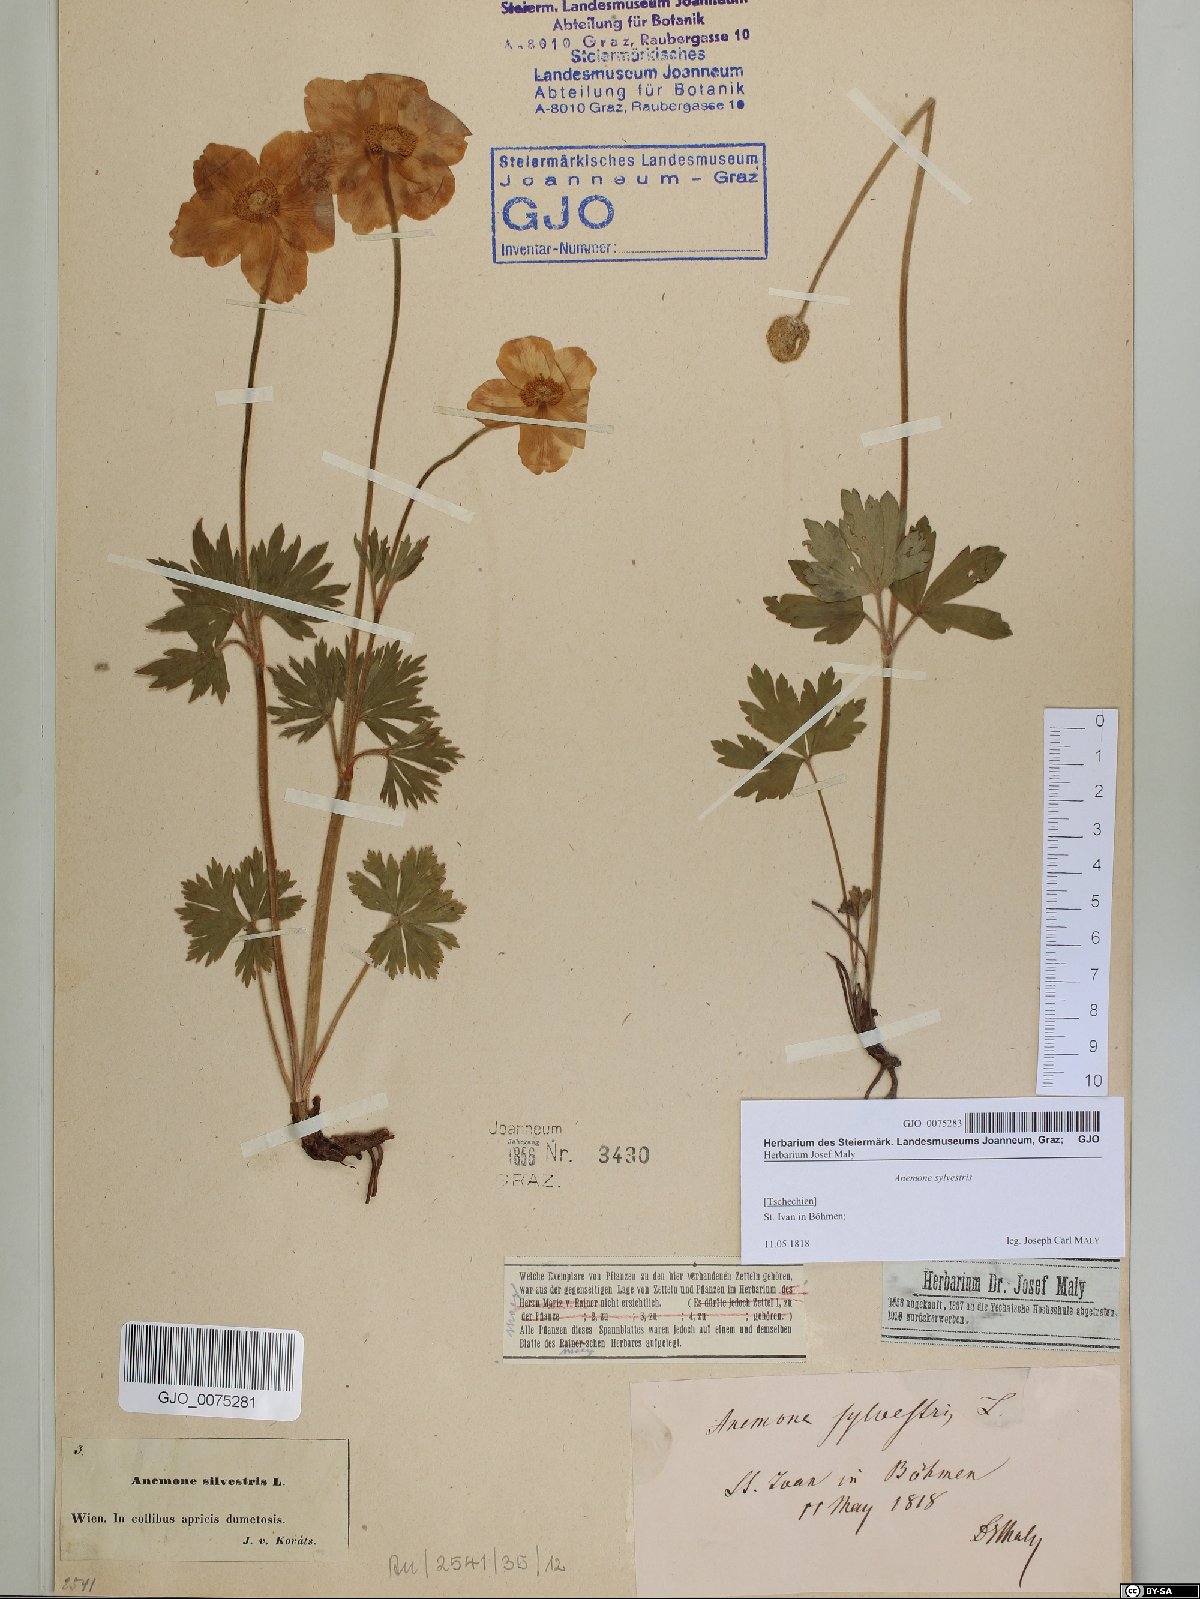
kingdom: Plantae
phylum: Tracheophyta
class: Magnoliopsida
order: Ranunculales
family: Ranunculaceae
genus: Anemone
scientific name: Anemone sylvestris
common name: Snowdrop anemone
